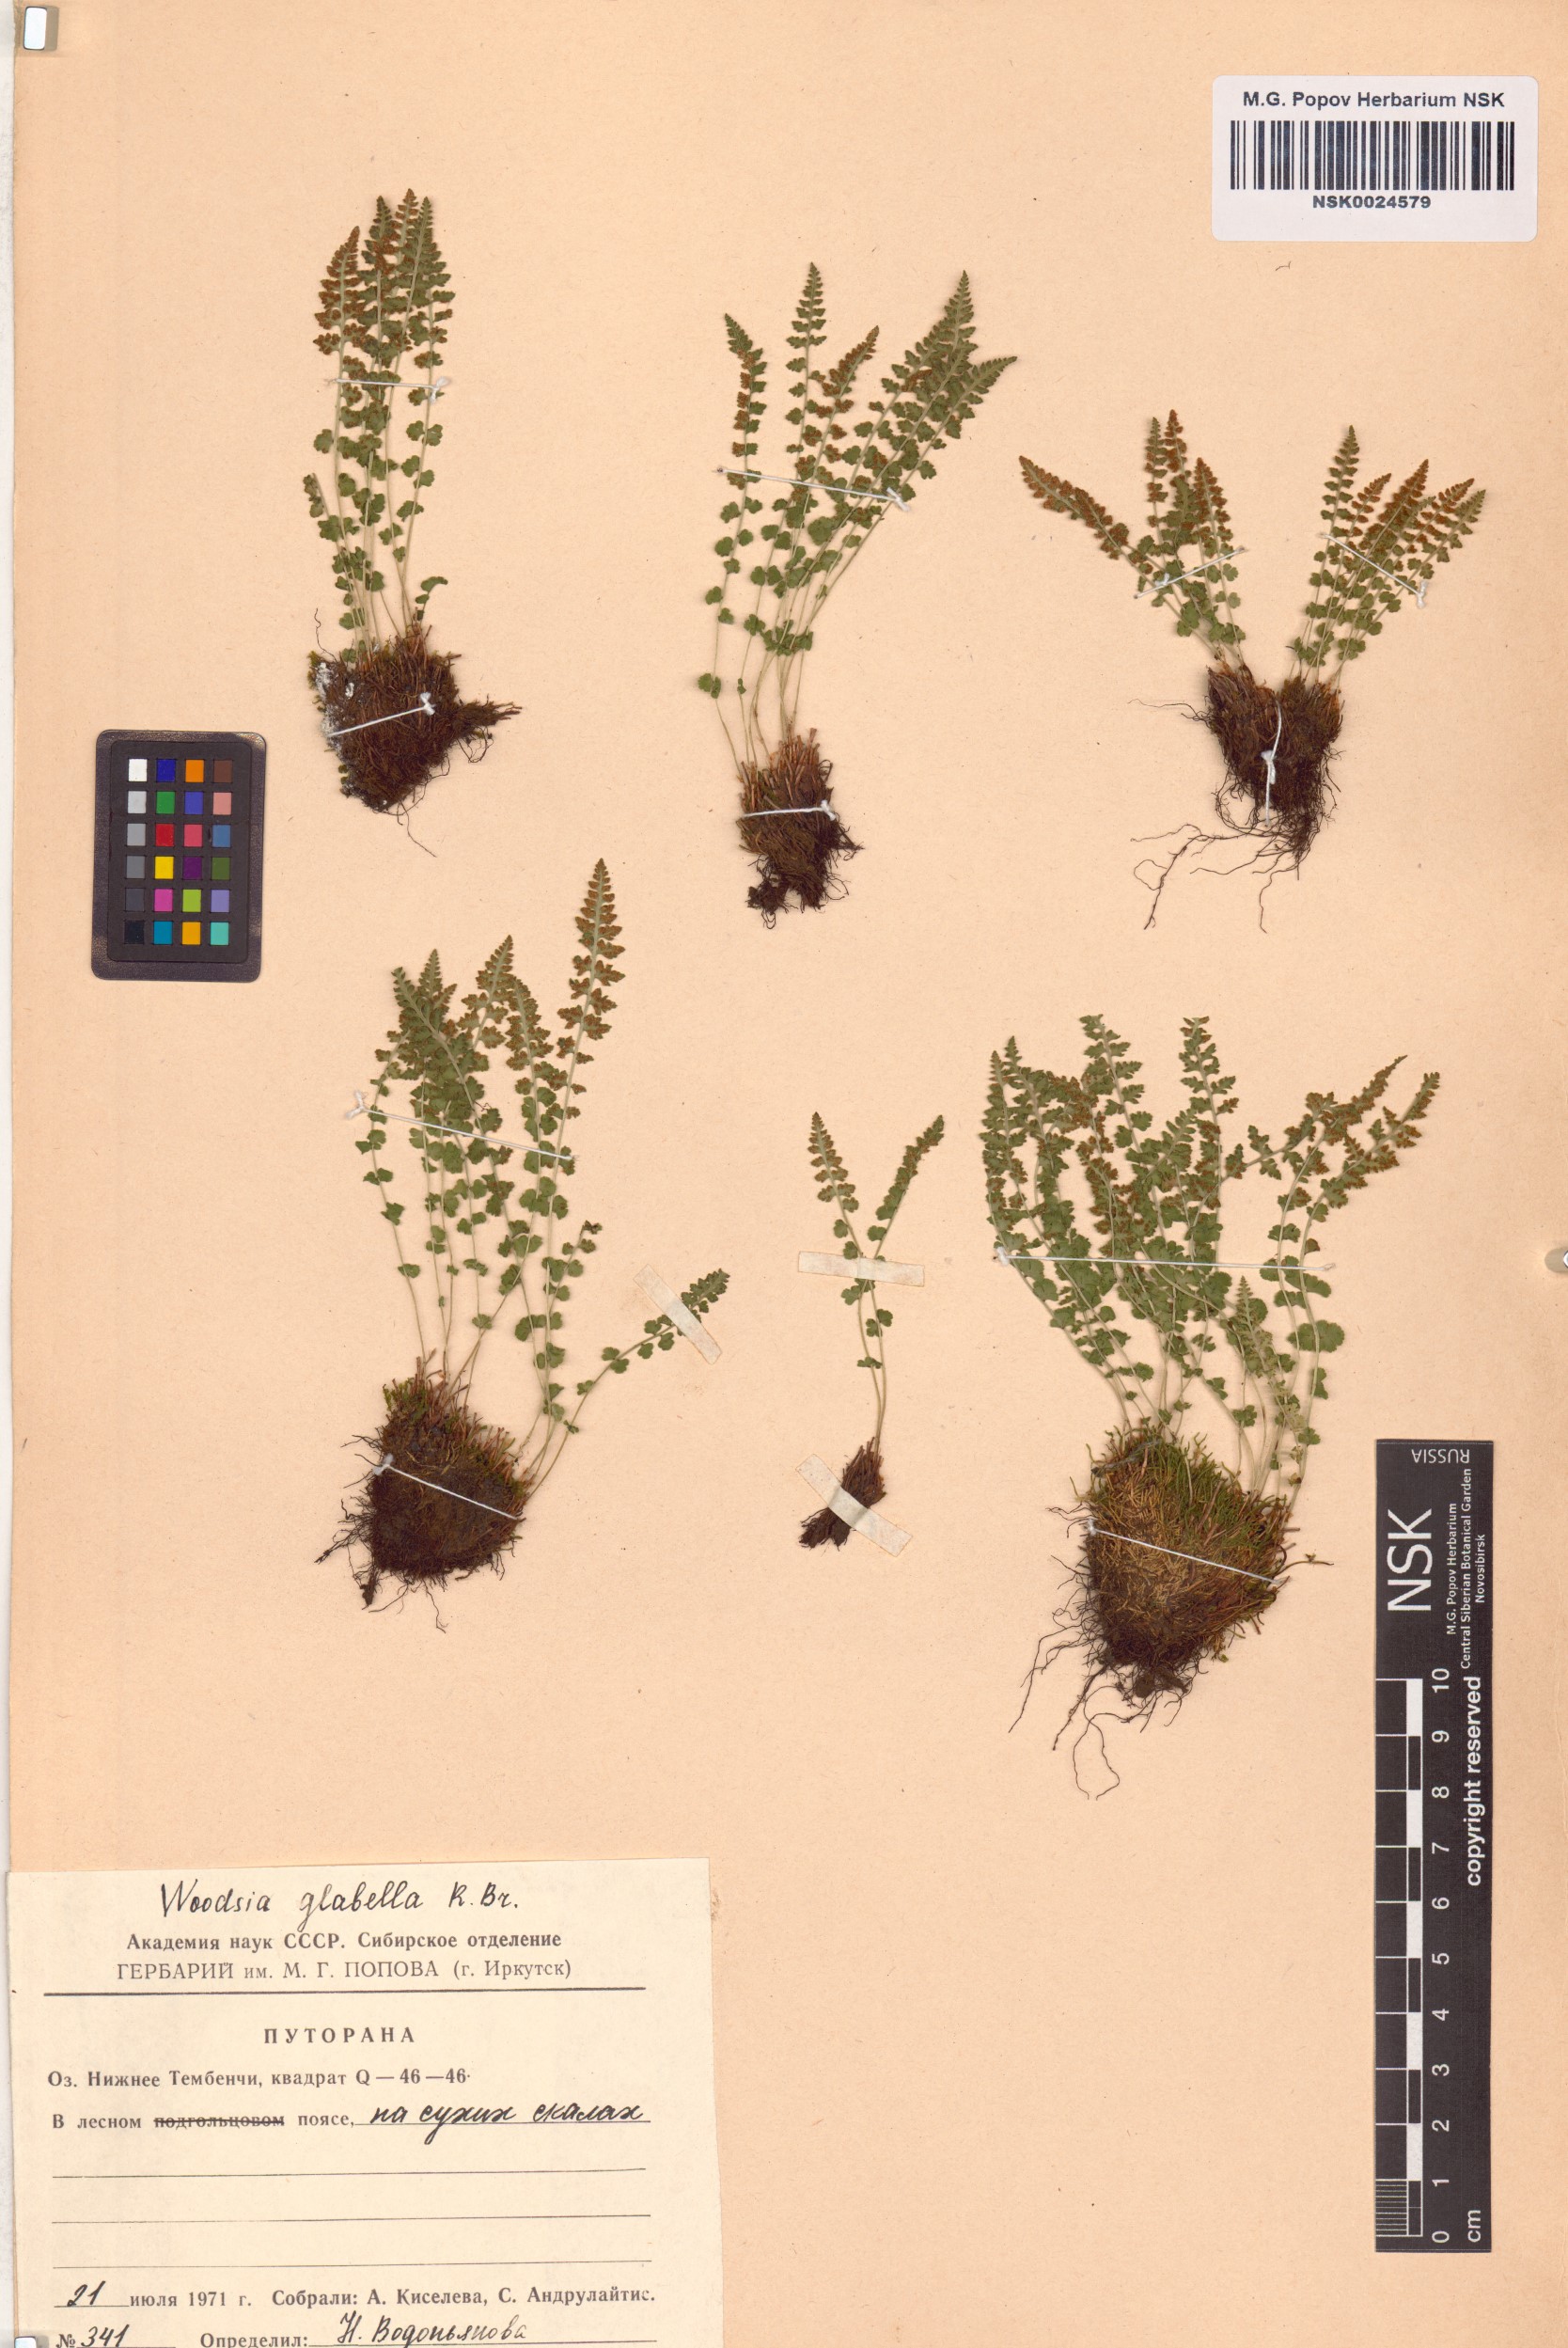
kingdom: Plantae
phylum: Tracheophyta
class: Polypodiopsida
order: Polypodiales
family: Woodsiaceae
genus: Woodsia
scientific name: Woodsia glabella
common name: Smooth woodsia
